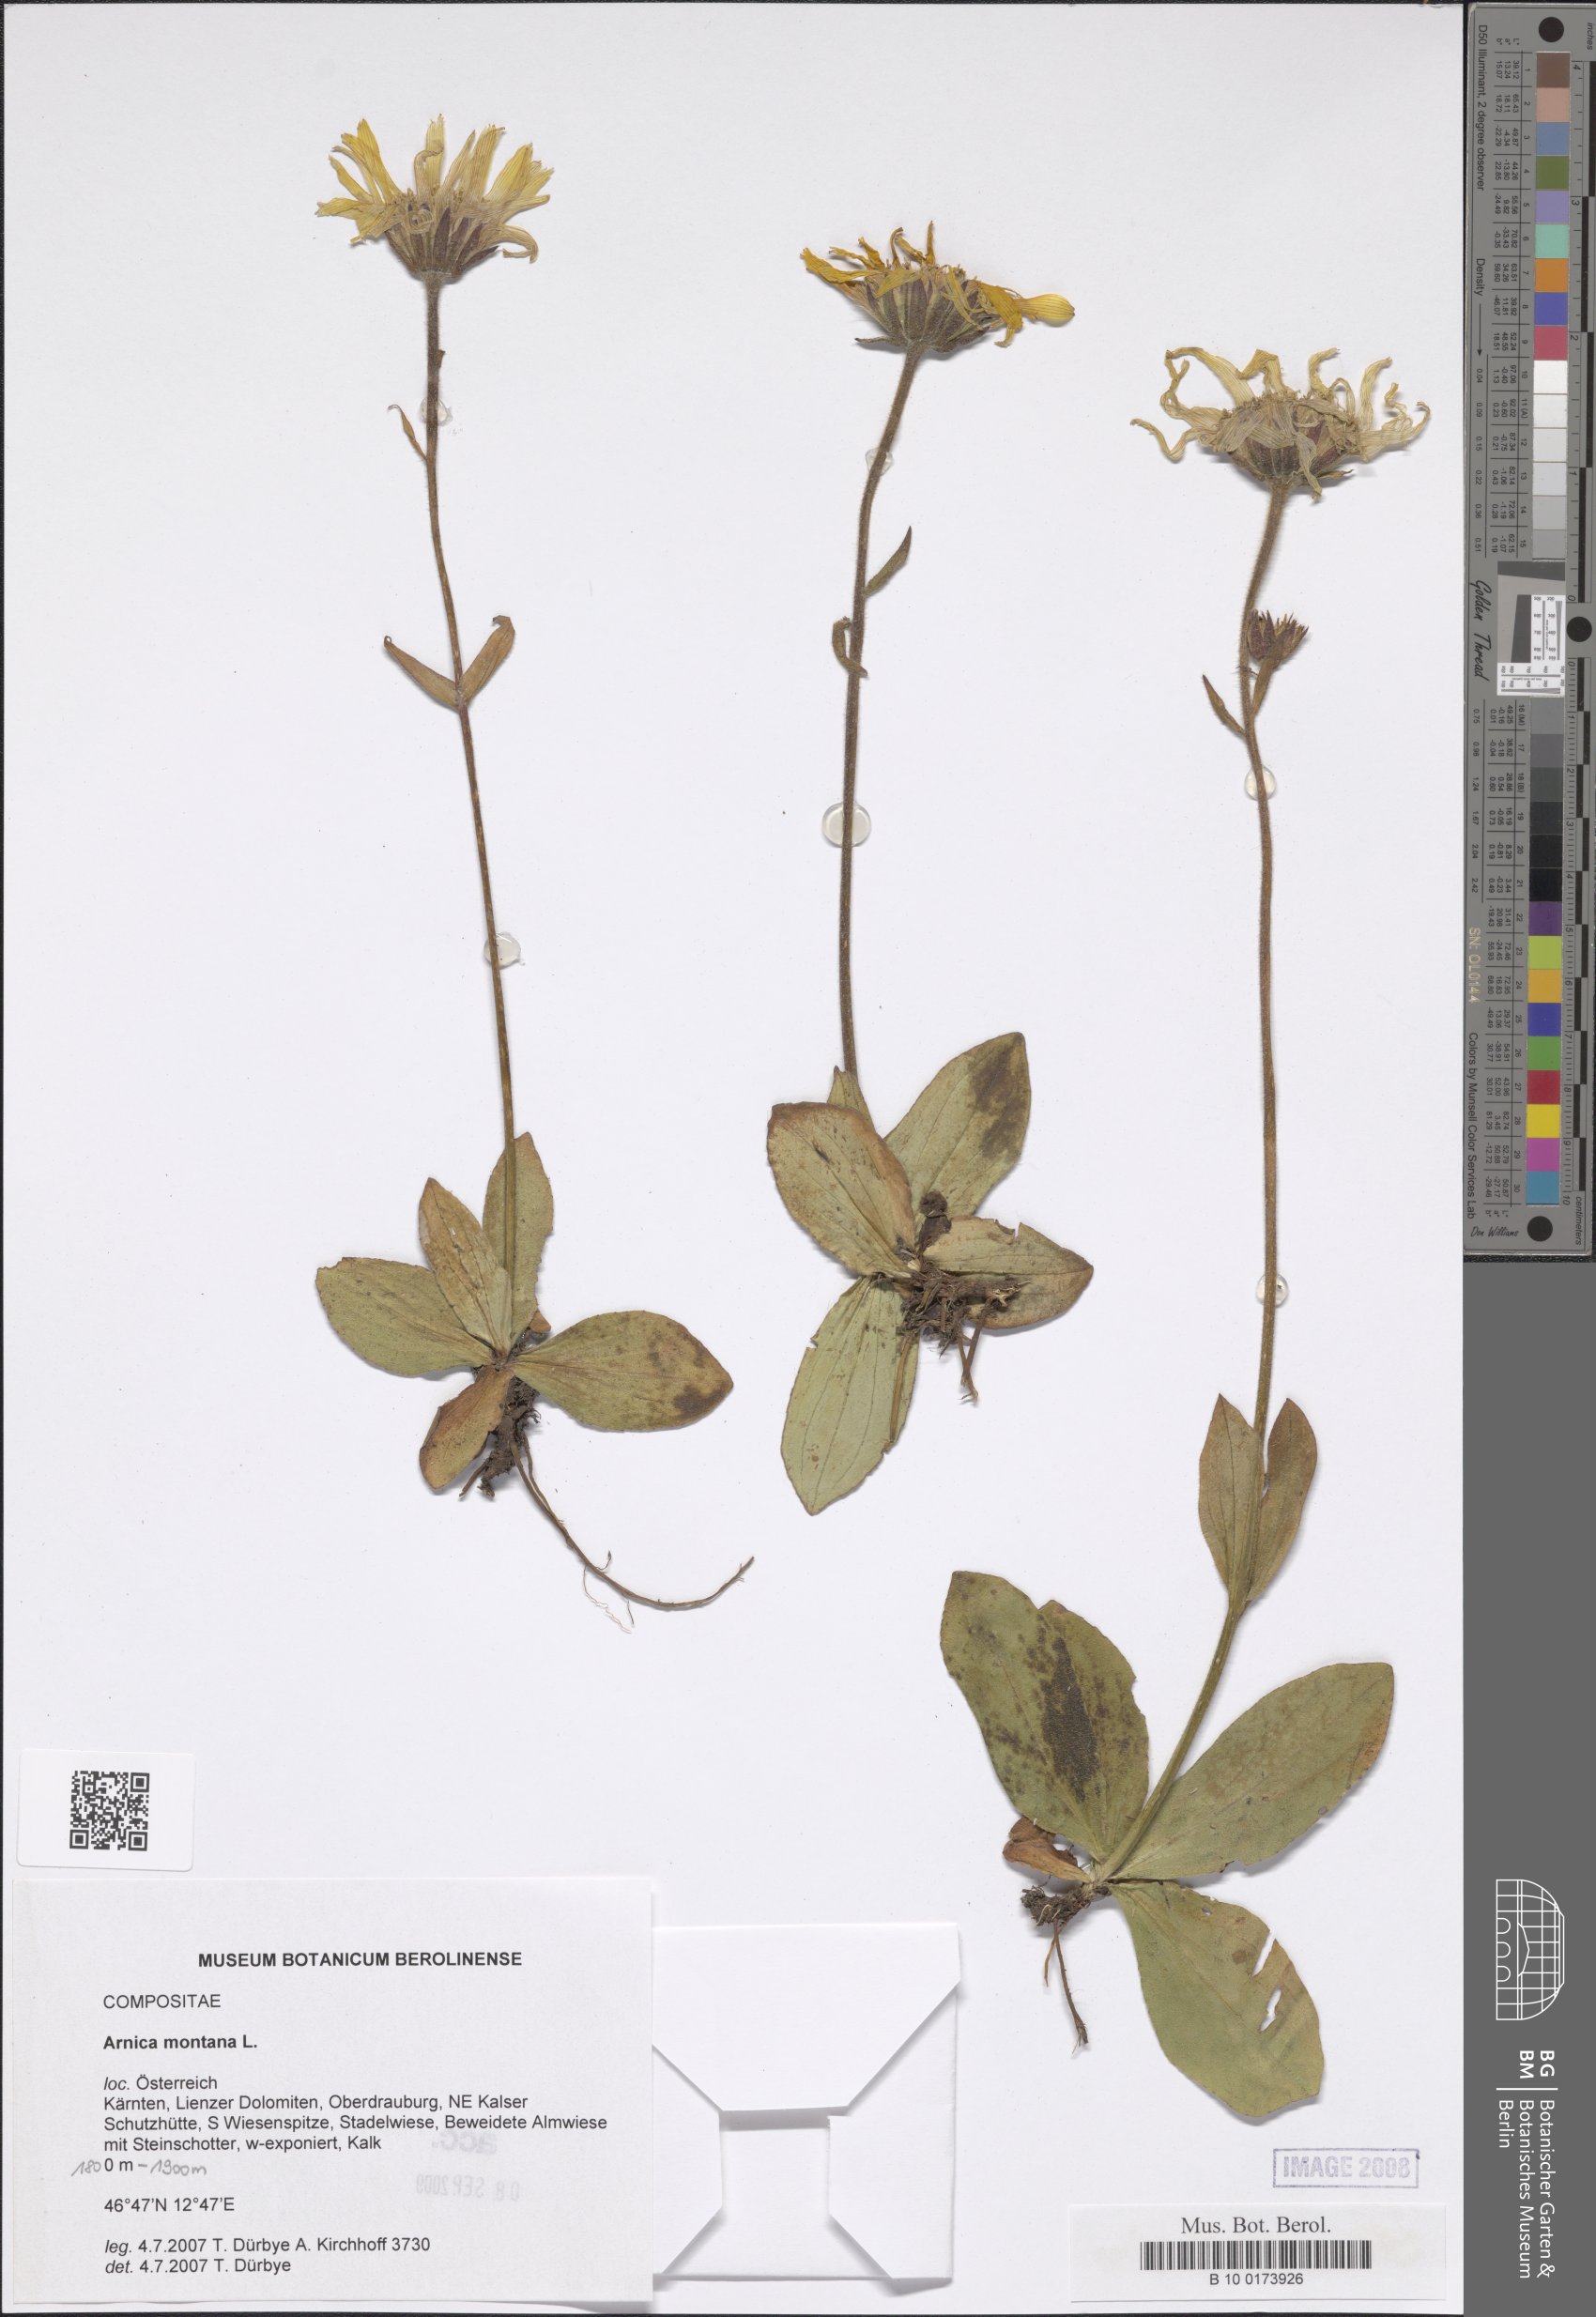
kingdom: Plantae
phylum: Tracheophyta
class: Magnoliopsida
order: Asterales
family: Asteraceae
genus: Arnica
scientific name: Arnica montana
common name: Leopard's bane
